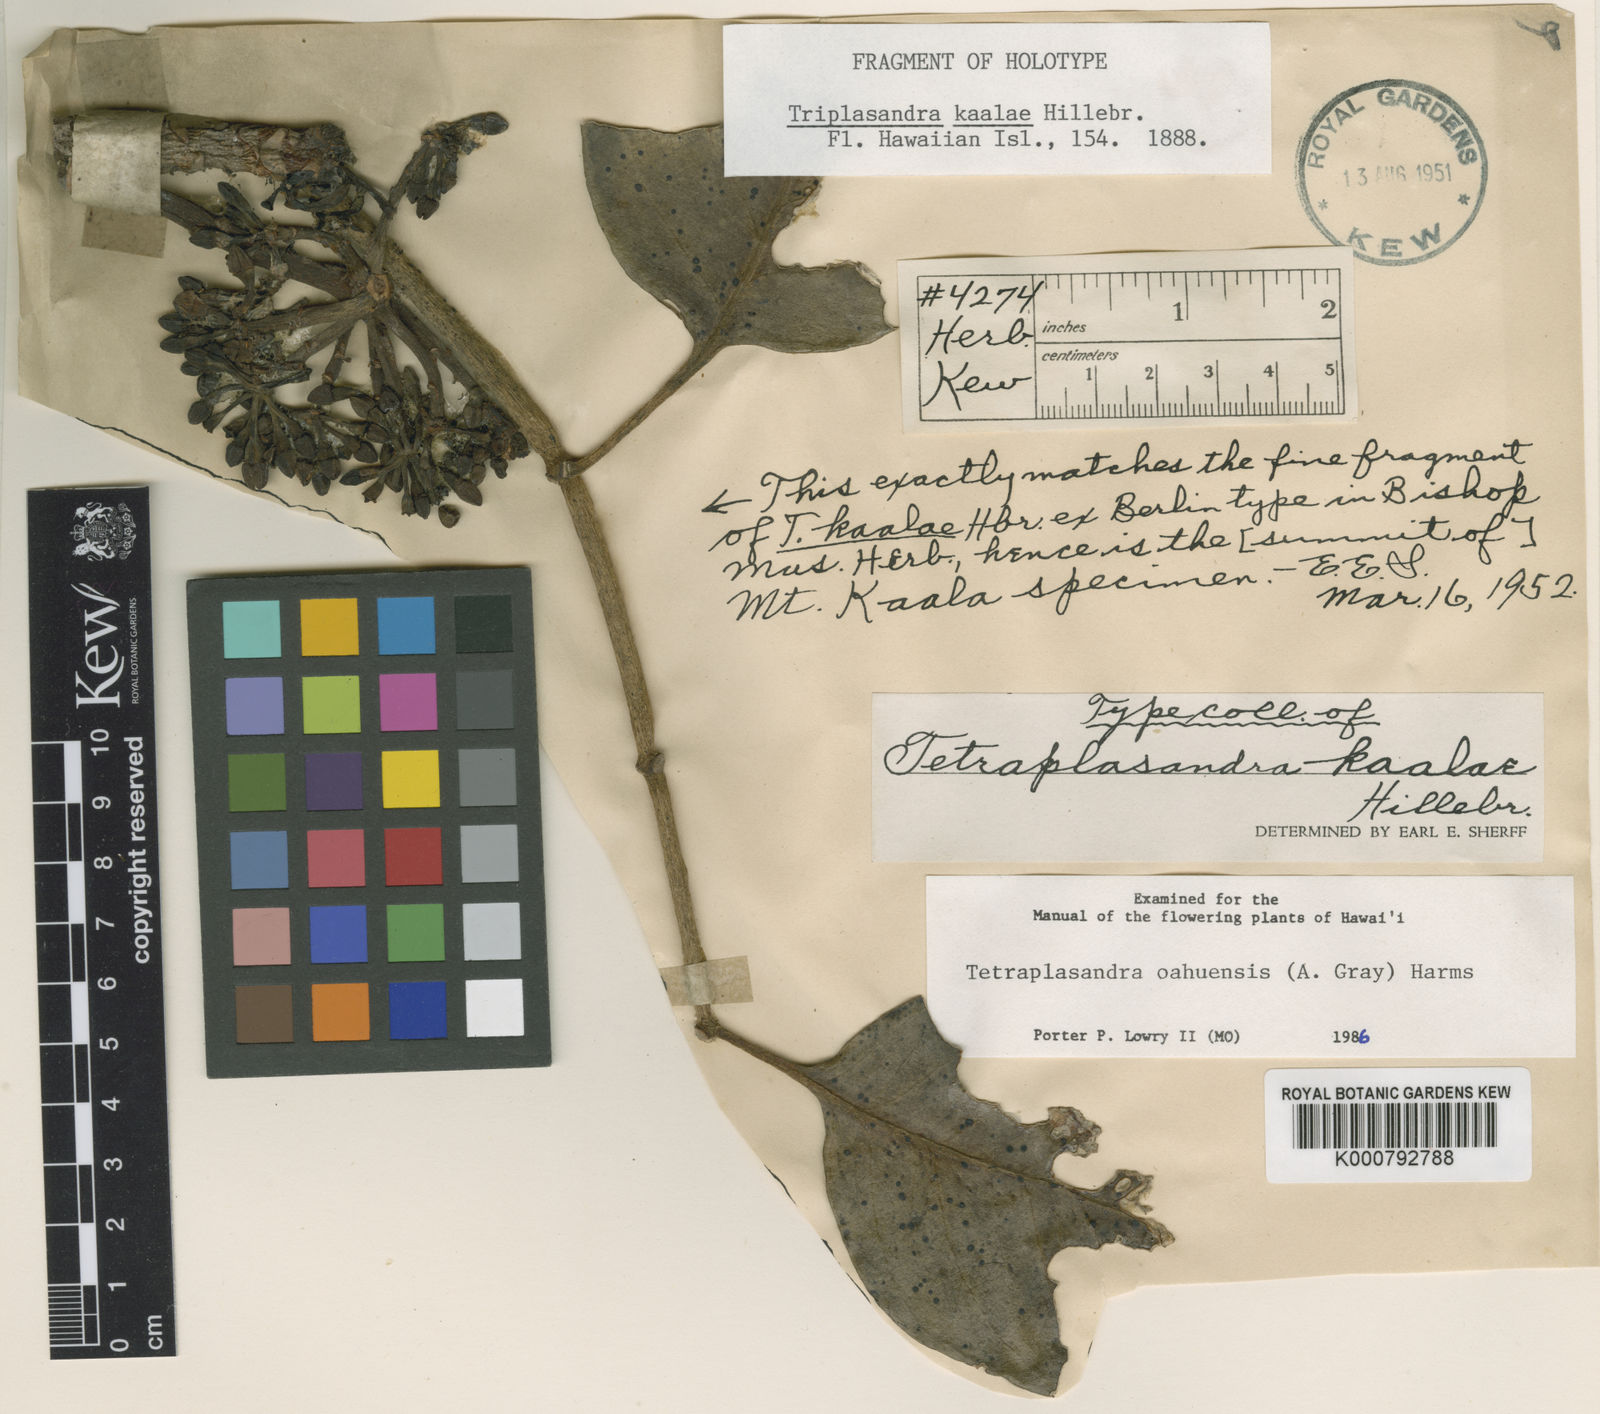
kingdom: Plantae
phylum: Tracheophyta
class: Magnoliopsida
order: Apiales
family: Araliaceae
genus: Polyscias
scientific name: Polyscias oahuensis
